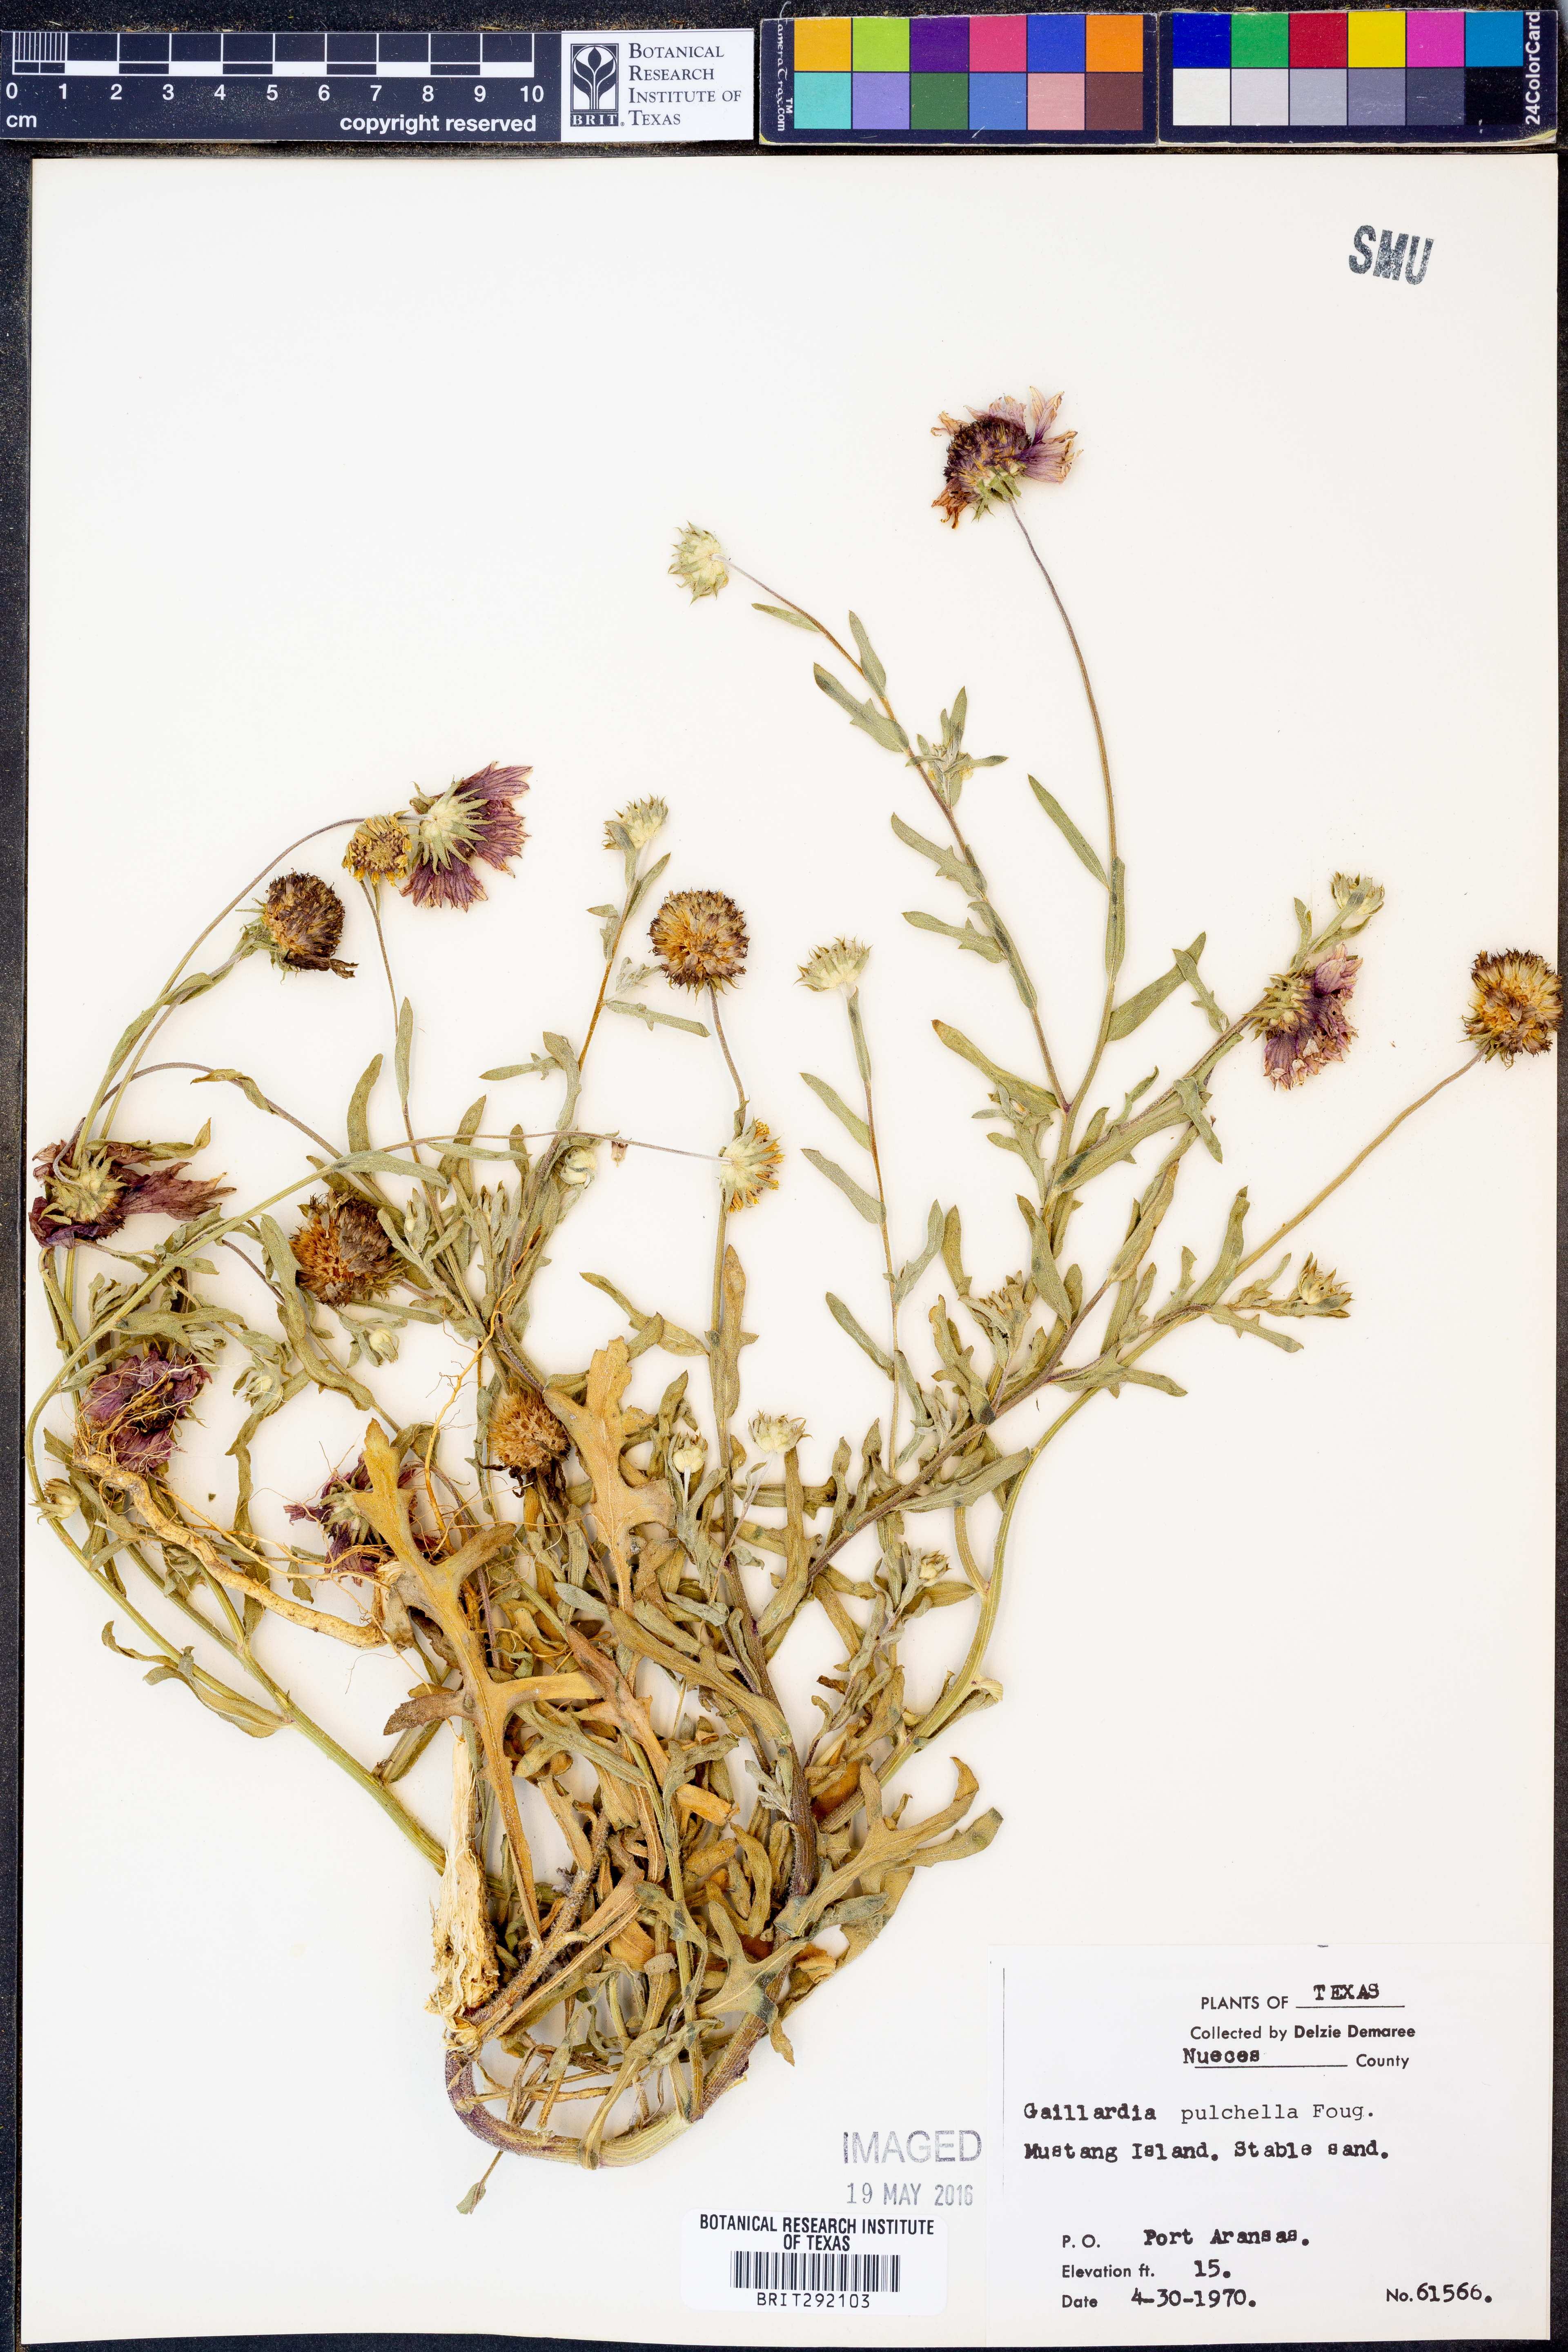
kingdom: Plantae
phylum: Tracheophyta
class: Magnoliopsida
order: Asterales
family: Asteraceae
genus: Gaillardia
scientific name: Gaillardia pulchella
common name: Firewheel
